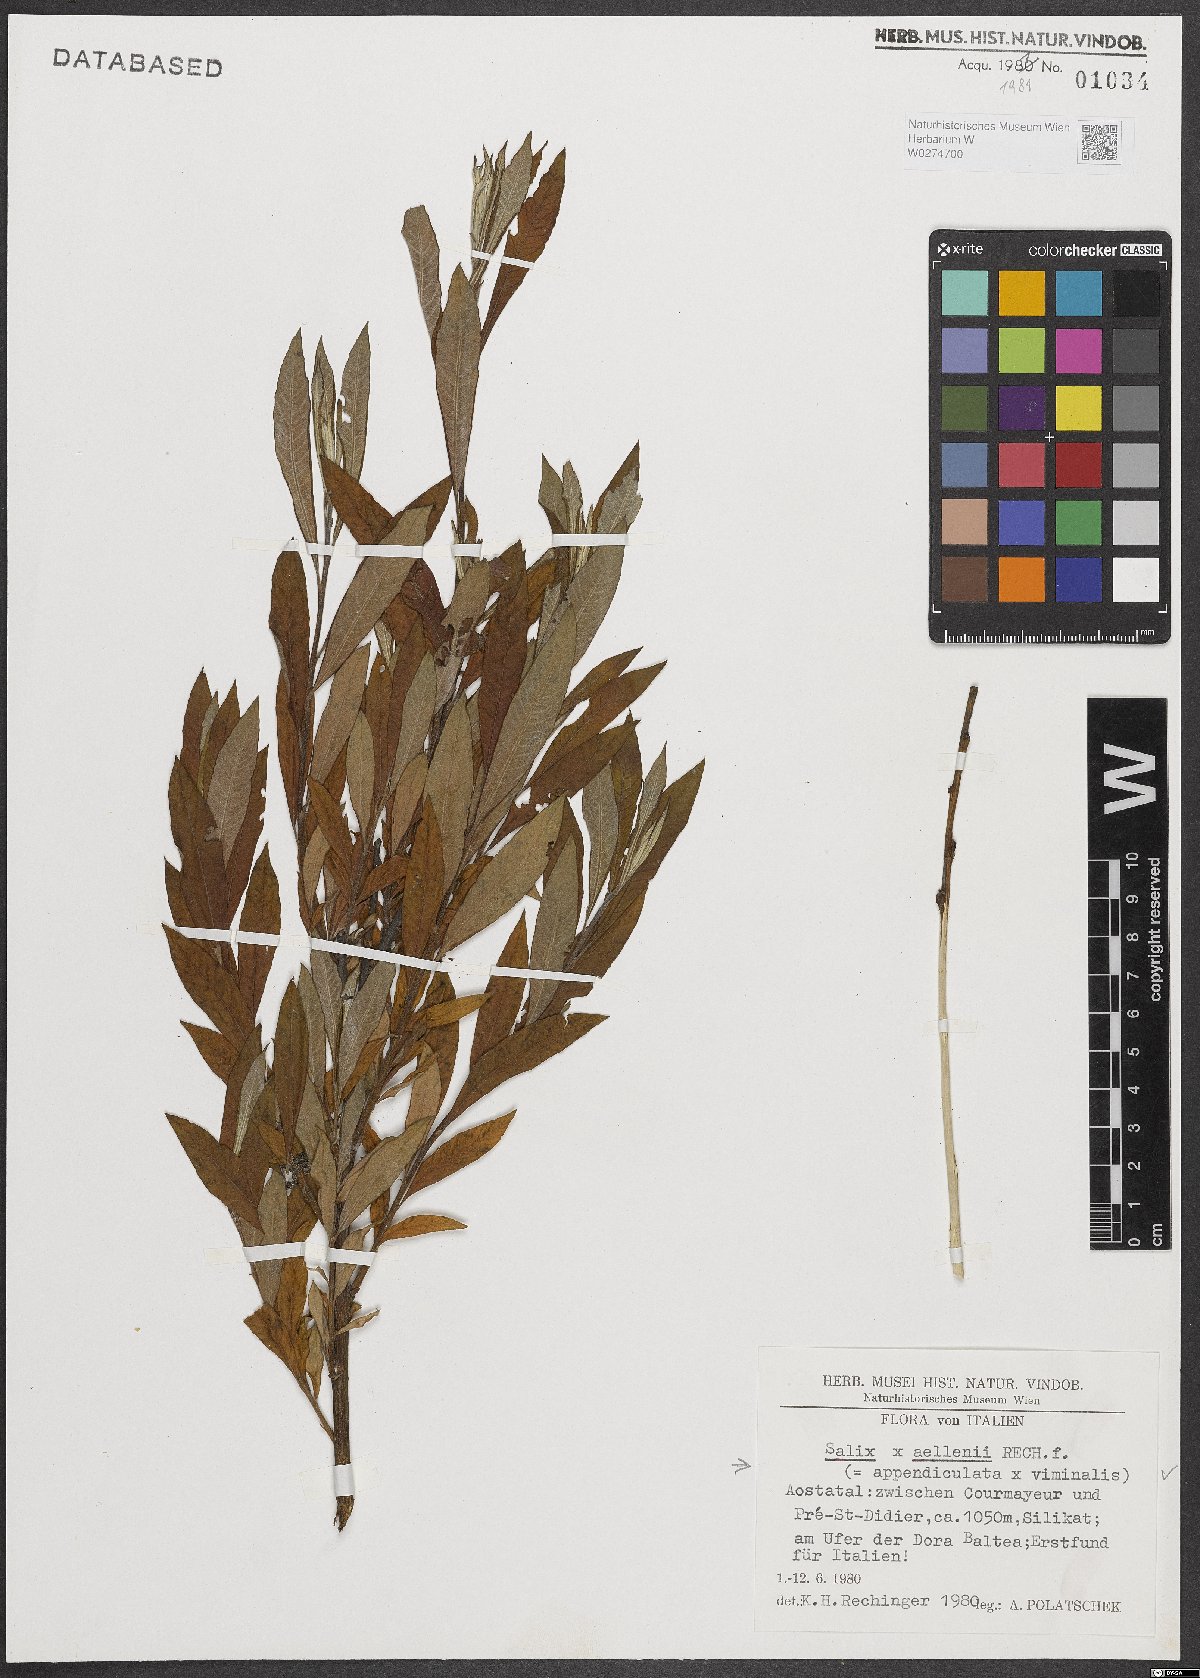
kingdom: Plantae
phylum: Tracheophyta
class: Magnoliopsida
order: Malpighiales
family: Salicaceae
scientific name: Salicaceae
